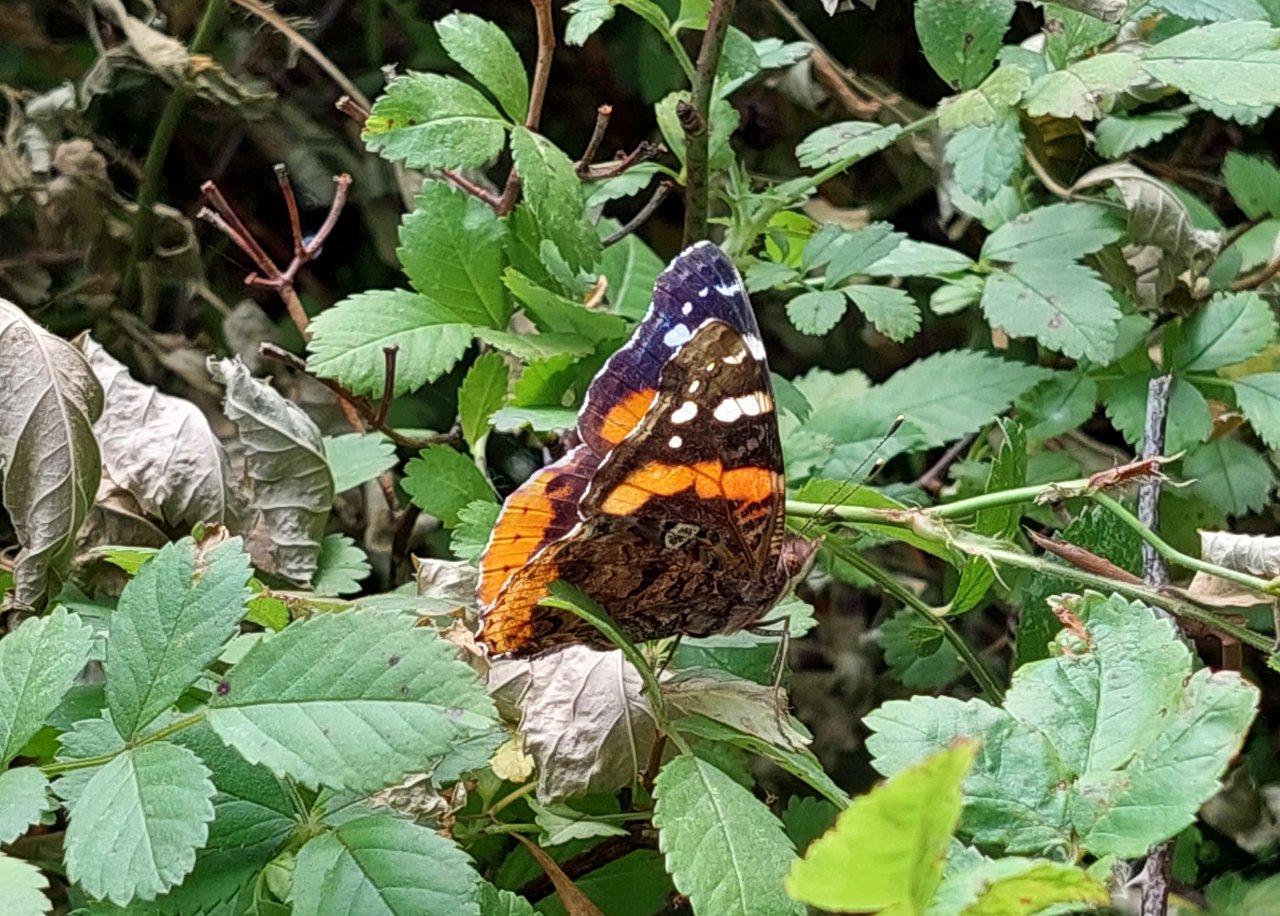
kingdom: Animalia
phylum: Arthropoda
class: Insecta
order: Lepidoptera
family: Nymphalidae
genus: Vanessa
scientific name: Vanessa atalanta
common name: Red Admiral
